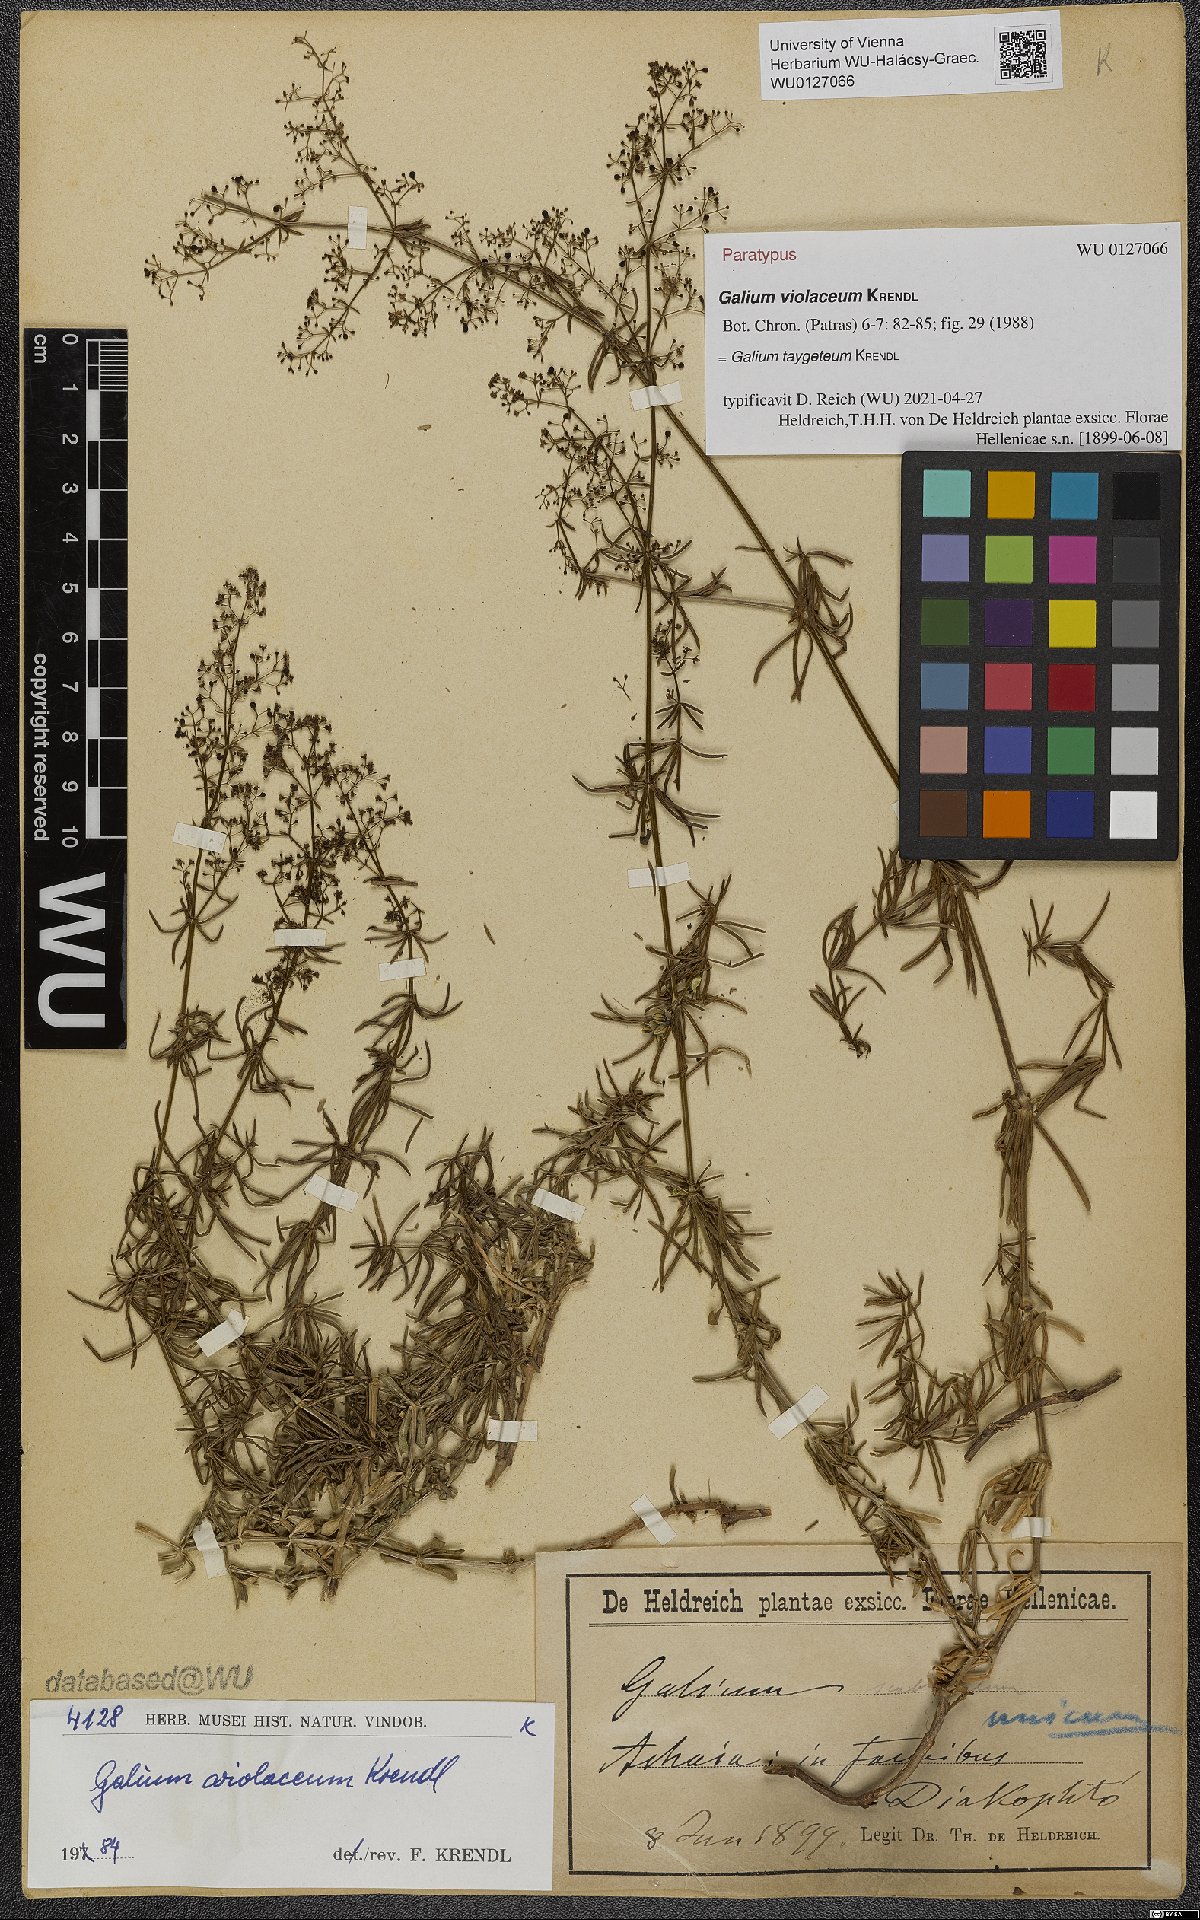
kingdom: Plantae
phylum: Tracheophyta
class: Magnoliopsida
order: Gentianales
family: Rubiaceae
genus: Galium
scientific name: Galium taygeteum
